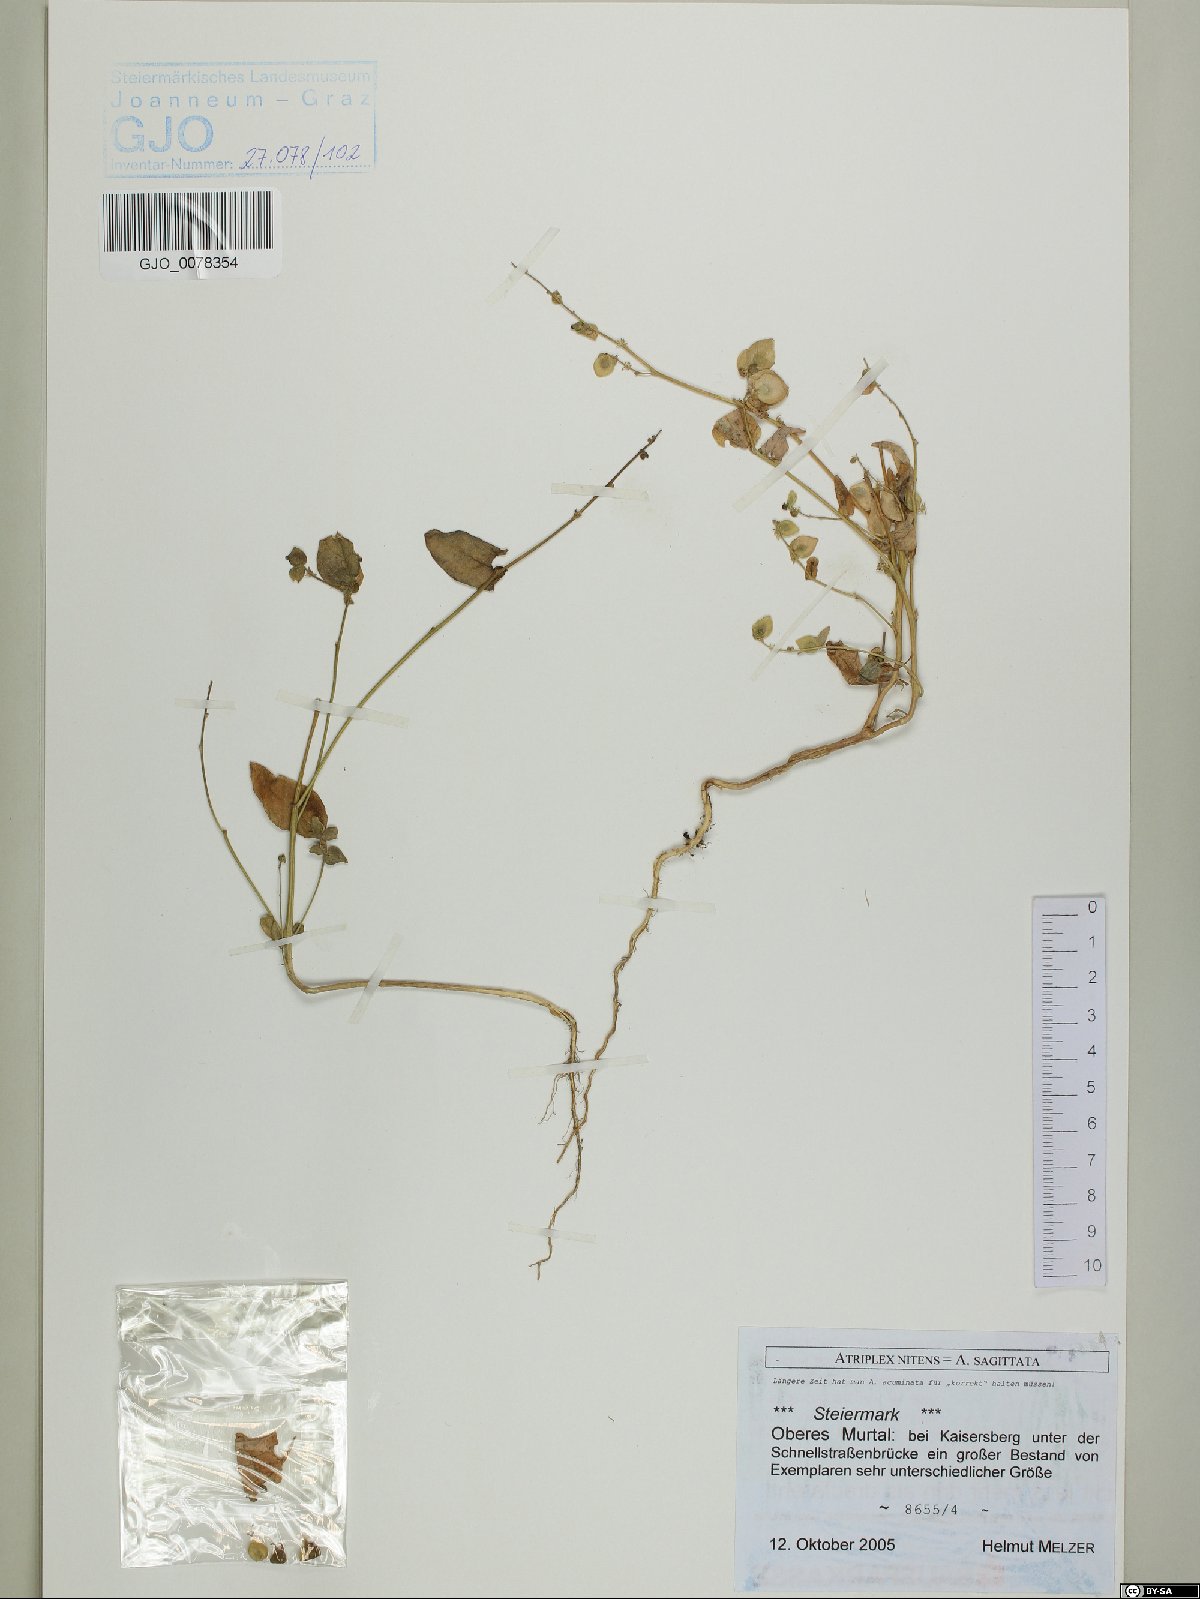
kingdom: Plantae
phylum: Tracheophyta
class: Magnoliopsida
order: Caryophyllales
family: Amaranthaceae
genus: Atriplex
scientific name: Atriplex sagittata
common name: Purple orache
